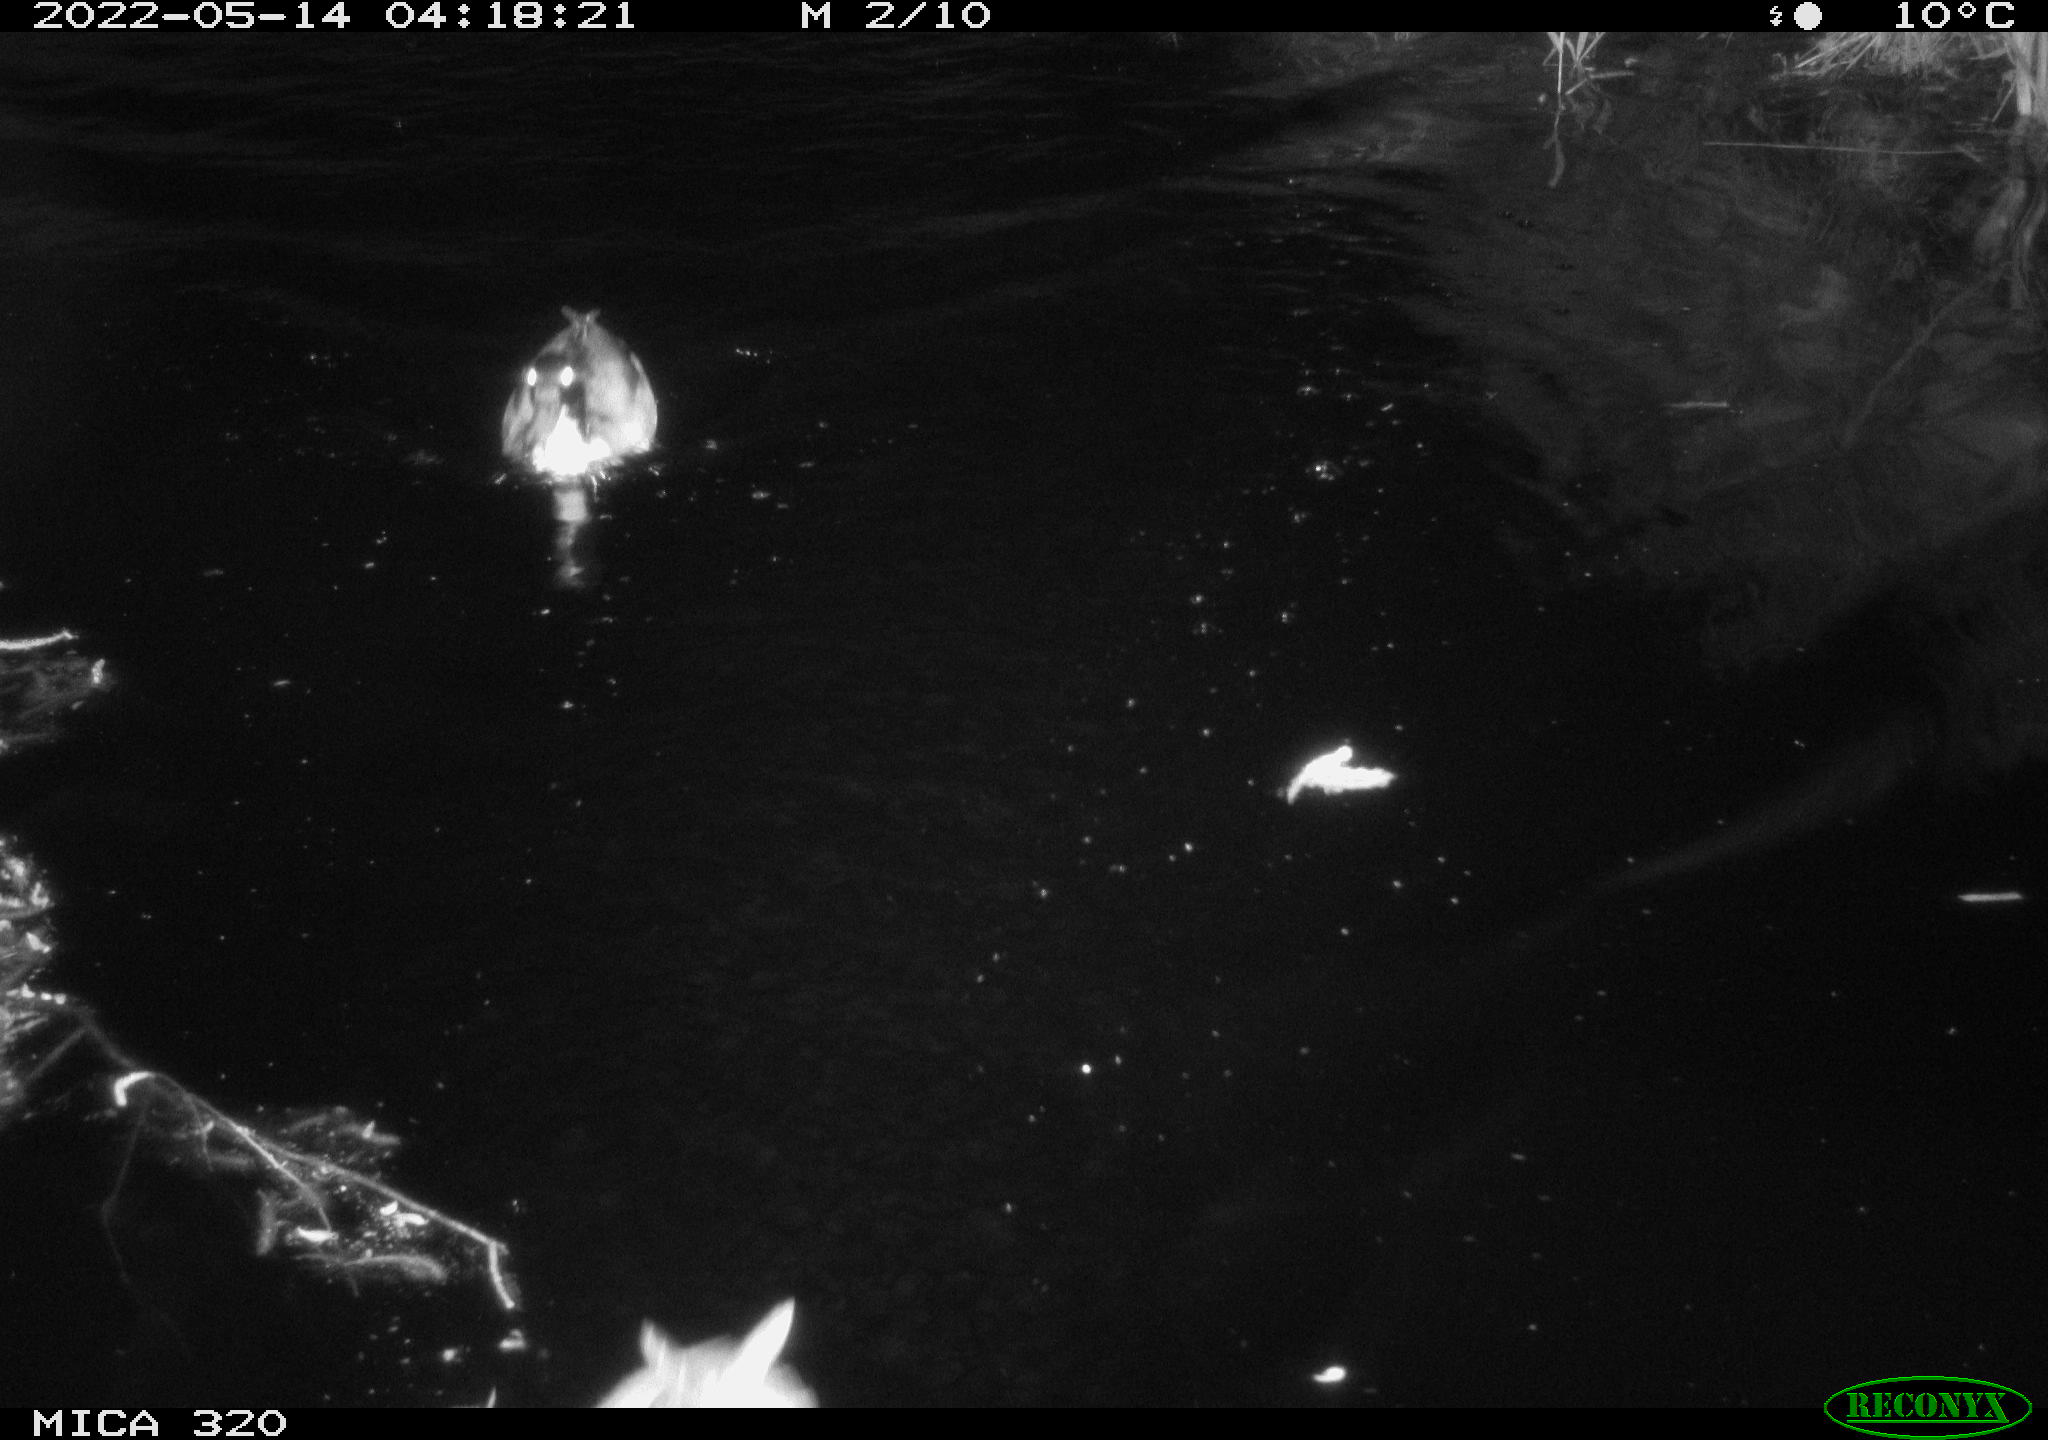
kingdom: Animalia
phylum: Chordata
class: Aves
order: Anseriformes
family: Anatidae
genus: Mareca
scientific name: Mareca strepera
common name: Gadwall
